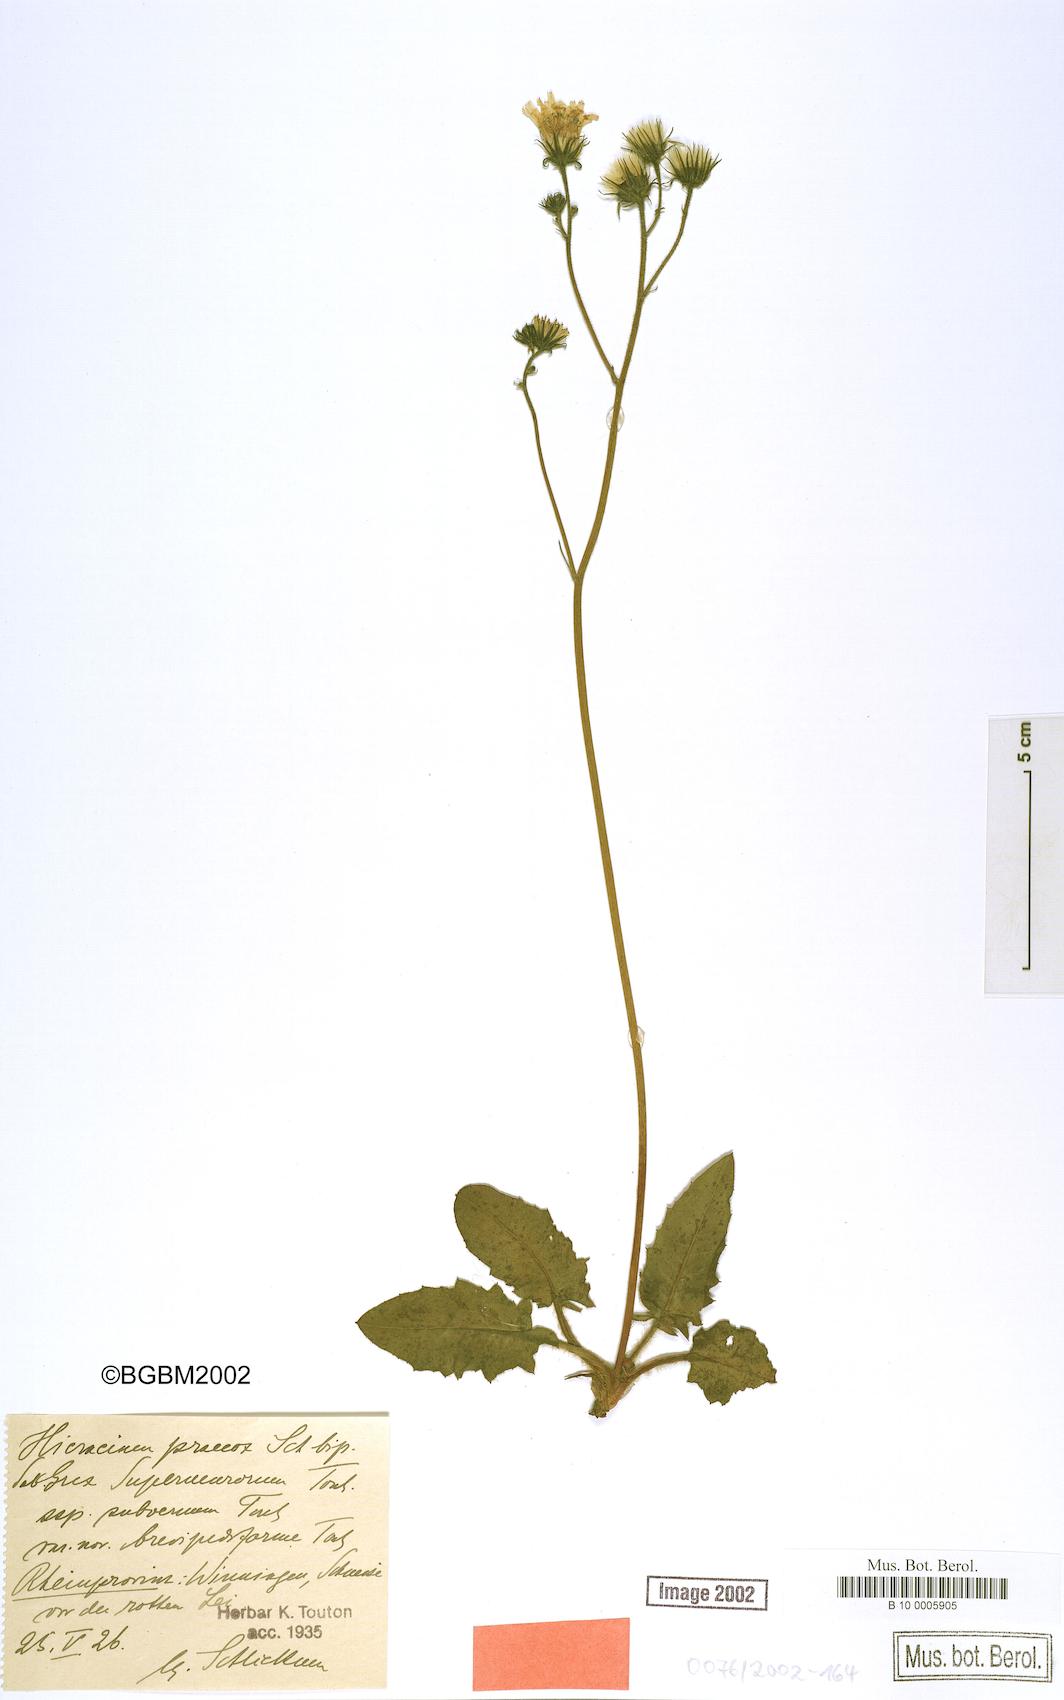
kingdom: Plantae
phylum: Tracheophyta
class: Magnoliopsida
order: Asterales
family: Asteraceae
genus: Hieracium
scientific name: Hieracium praecox
